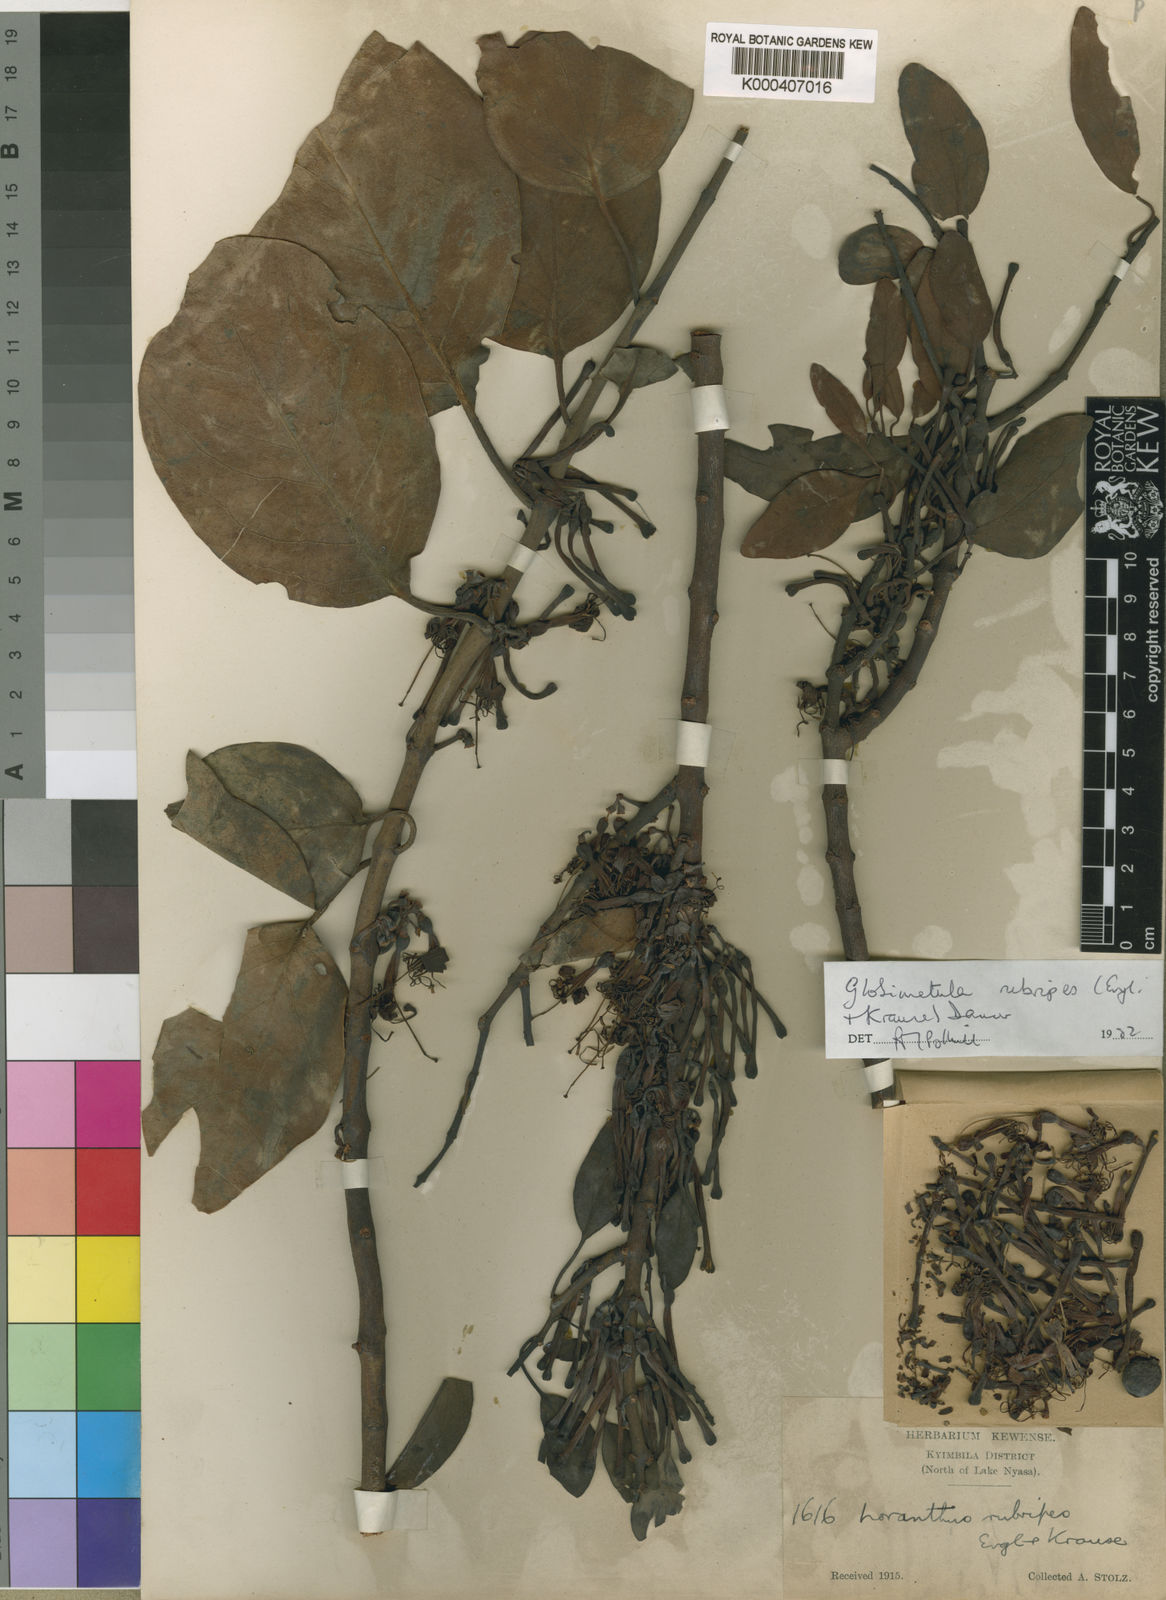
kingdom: Plantae
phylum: Tracheophyta
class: Magnoliopsida
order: Santalales
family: Loranthaceae
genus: Globimetula
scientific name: Globimetula rubripes
